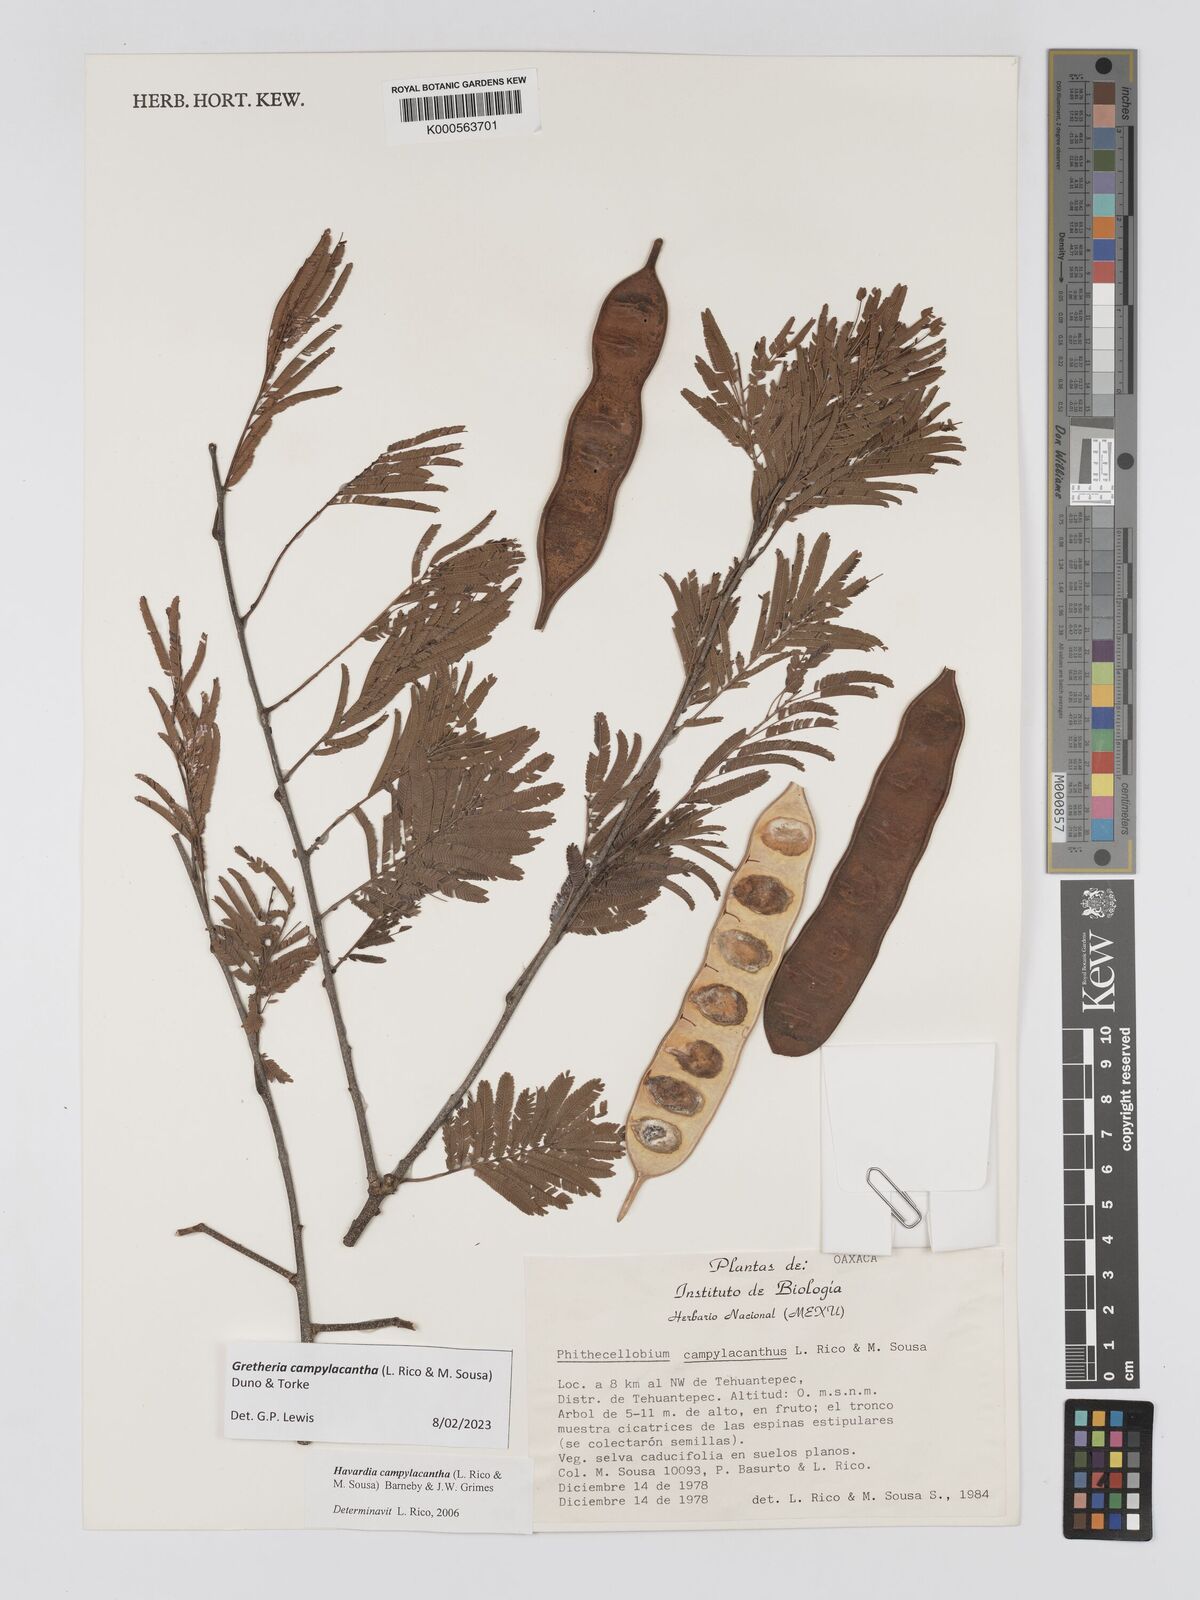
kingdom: Plantae
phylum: Tracheophyta
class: Magnoliopsida
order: Fabales
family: Fabaceae
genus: Havardia
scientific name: Havardia campylacantha
